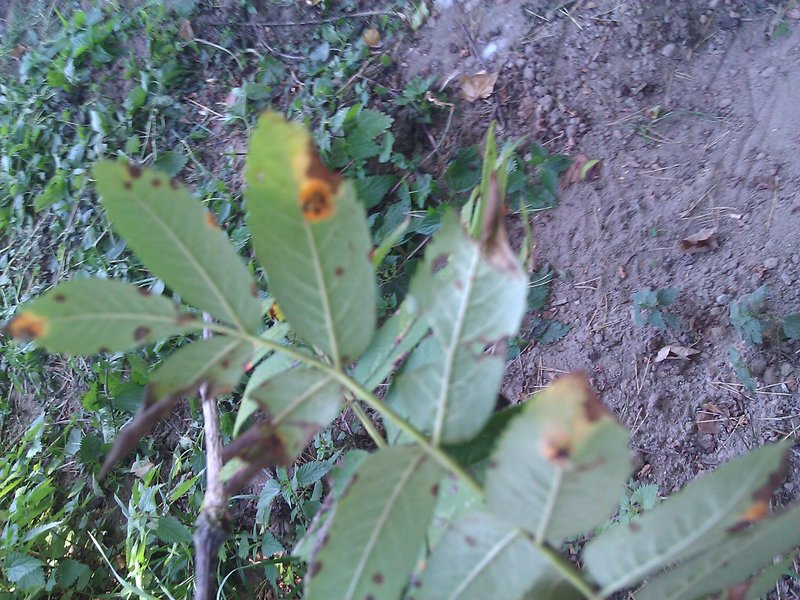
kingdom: Fungi
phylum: Basidiomycota
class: Pucciniomycetes
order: Pucciniales
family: Gymnosporangiaceae
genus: Gymnosporangium
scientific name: Gymnosporangium cornutum
